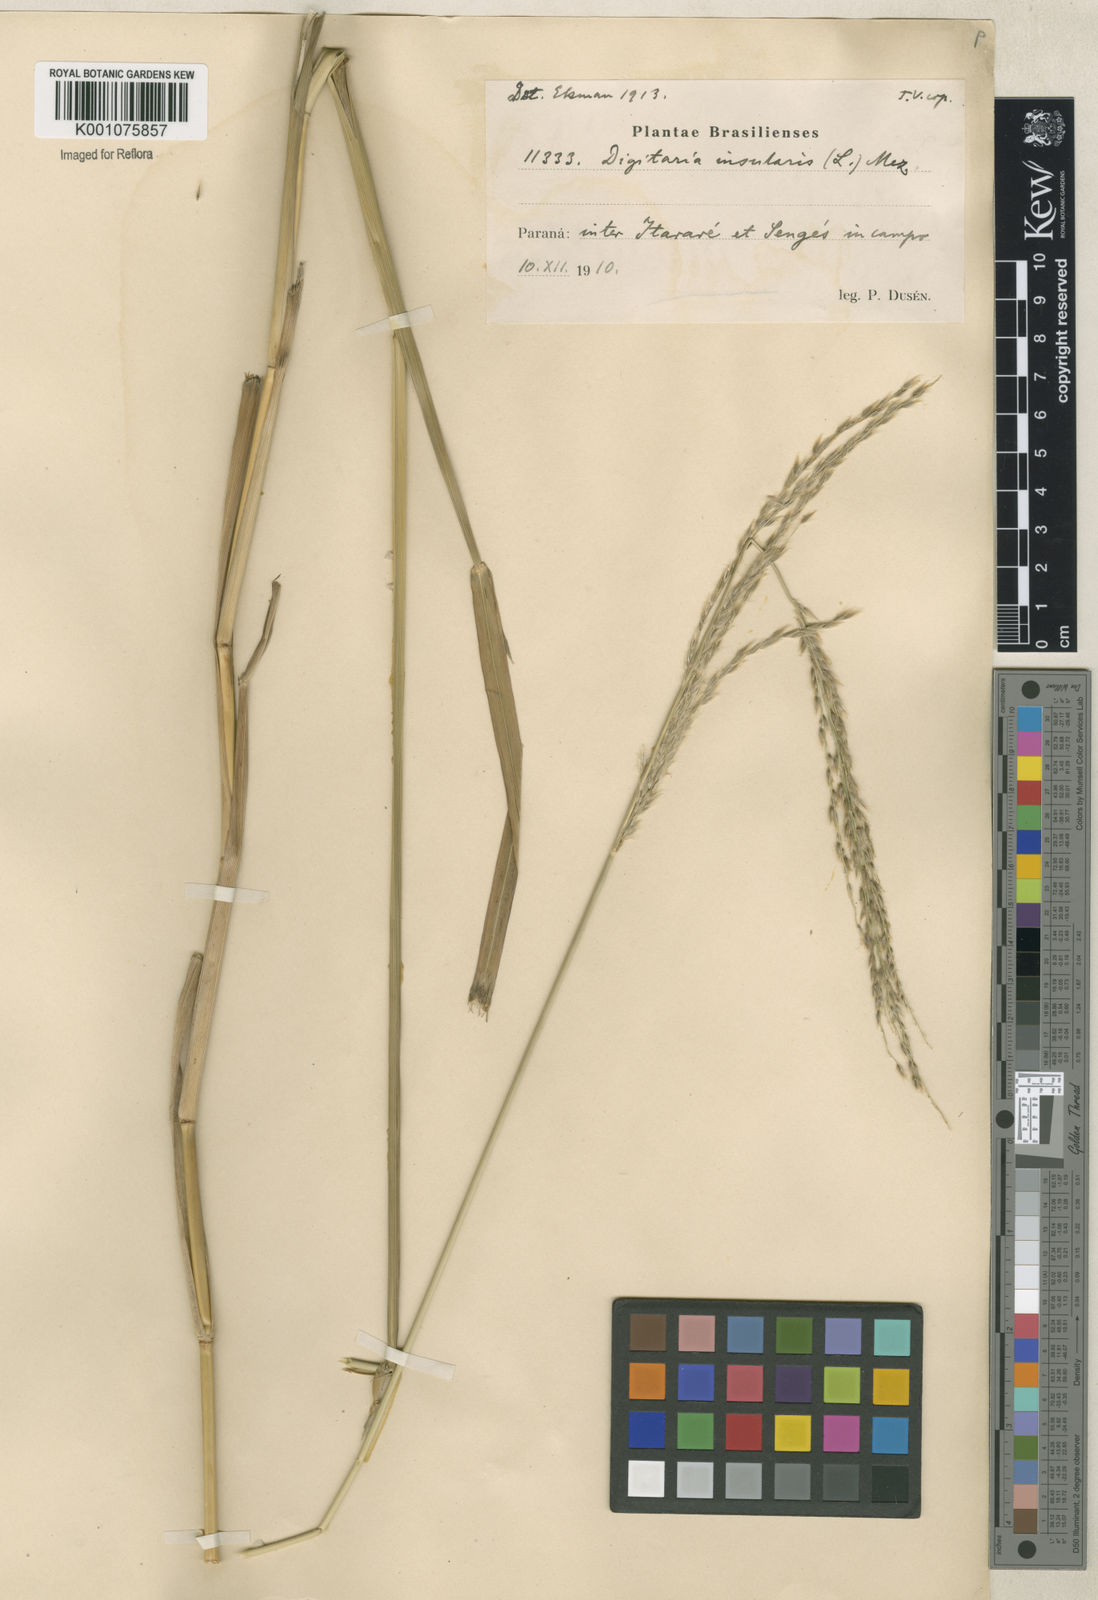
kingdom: Plantae
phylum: Tracheophyta
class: Liliopsida
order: Poales
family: Poaceae
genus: Digitaria
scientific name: Digitaria
